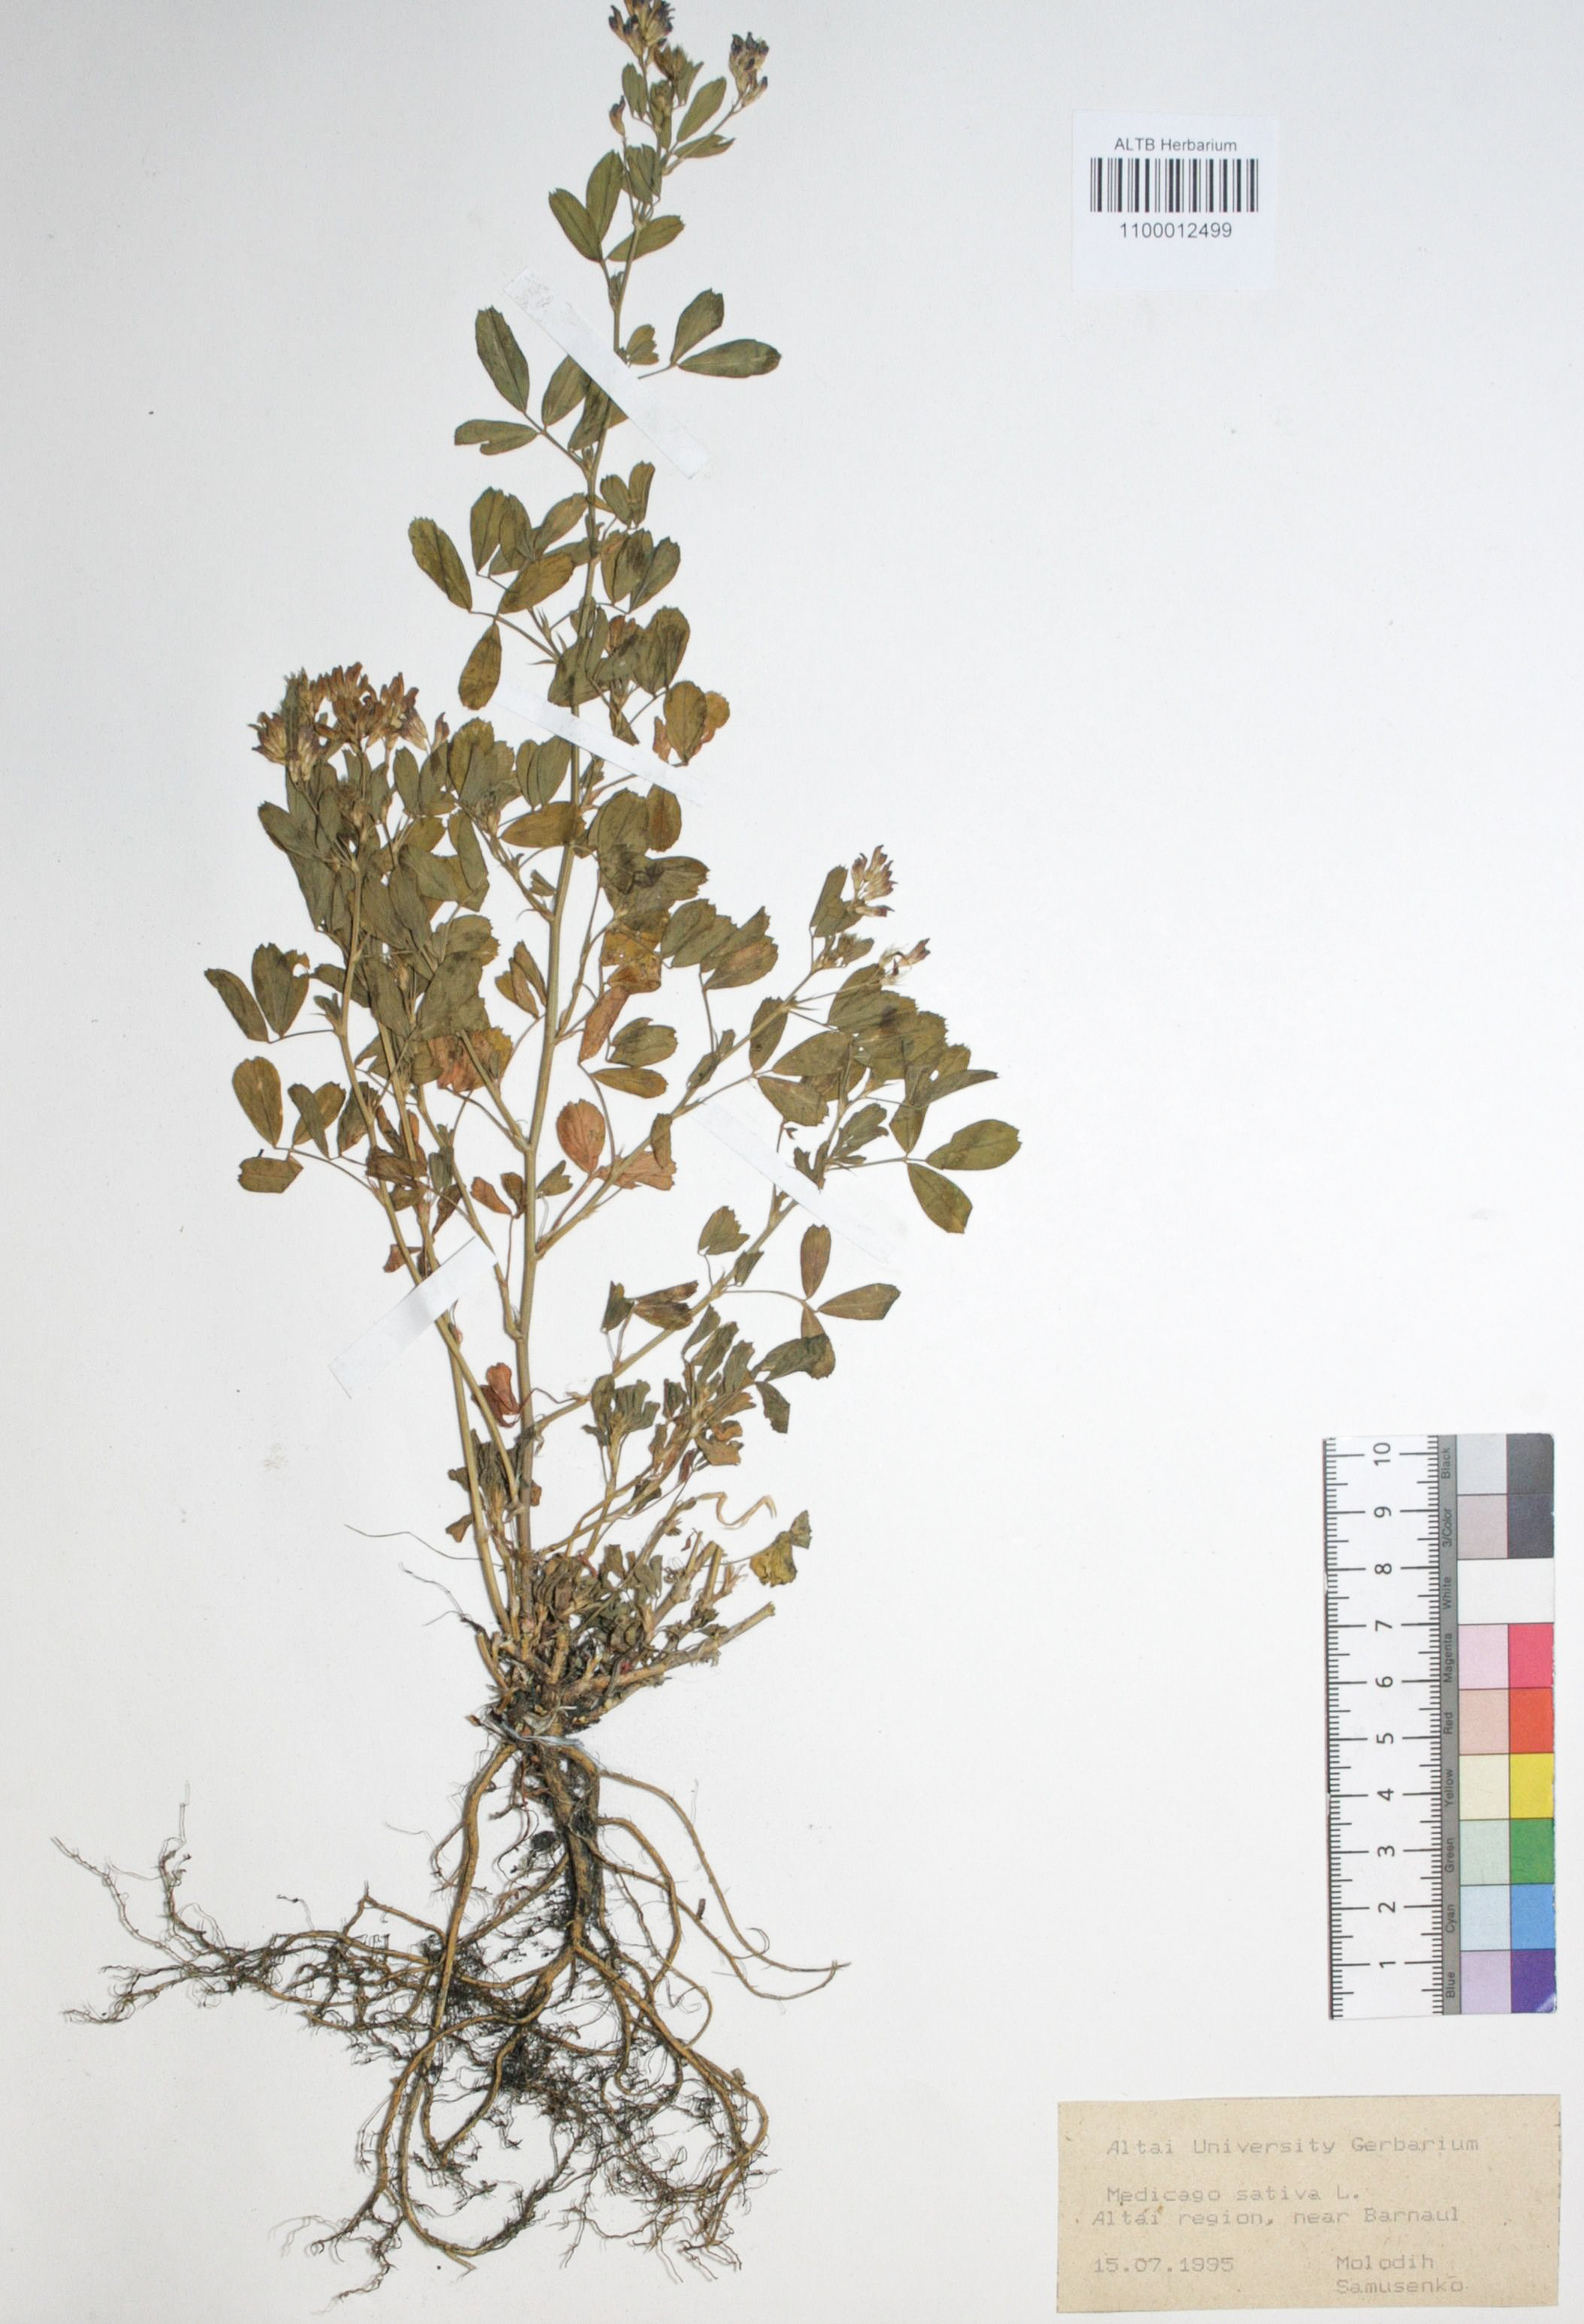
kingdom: Plantae
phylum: Tracheophyta
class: Magnoliopsida
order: Fabales
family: Fabaceae
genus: Medicago
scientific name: Medicago sativa
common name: Alfalfa
